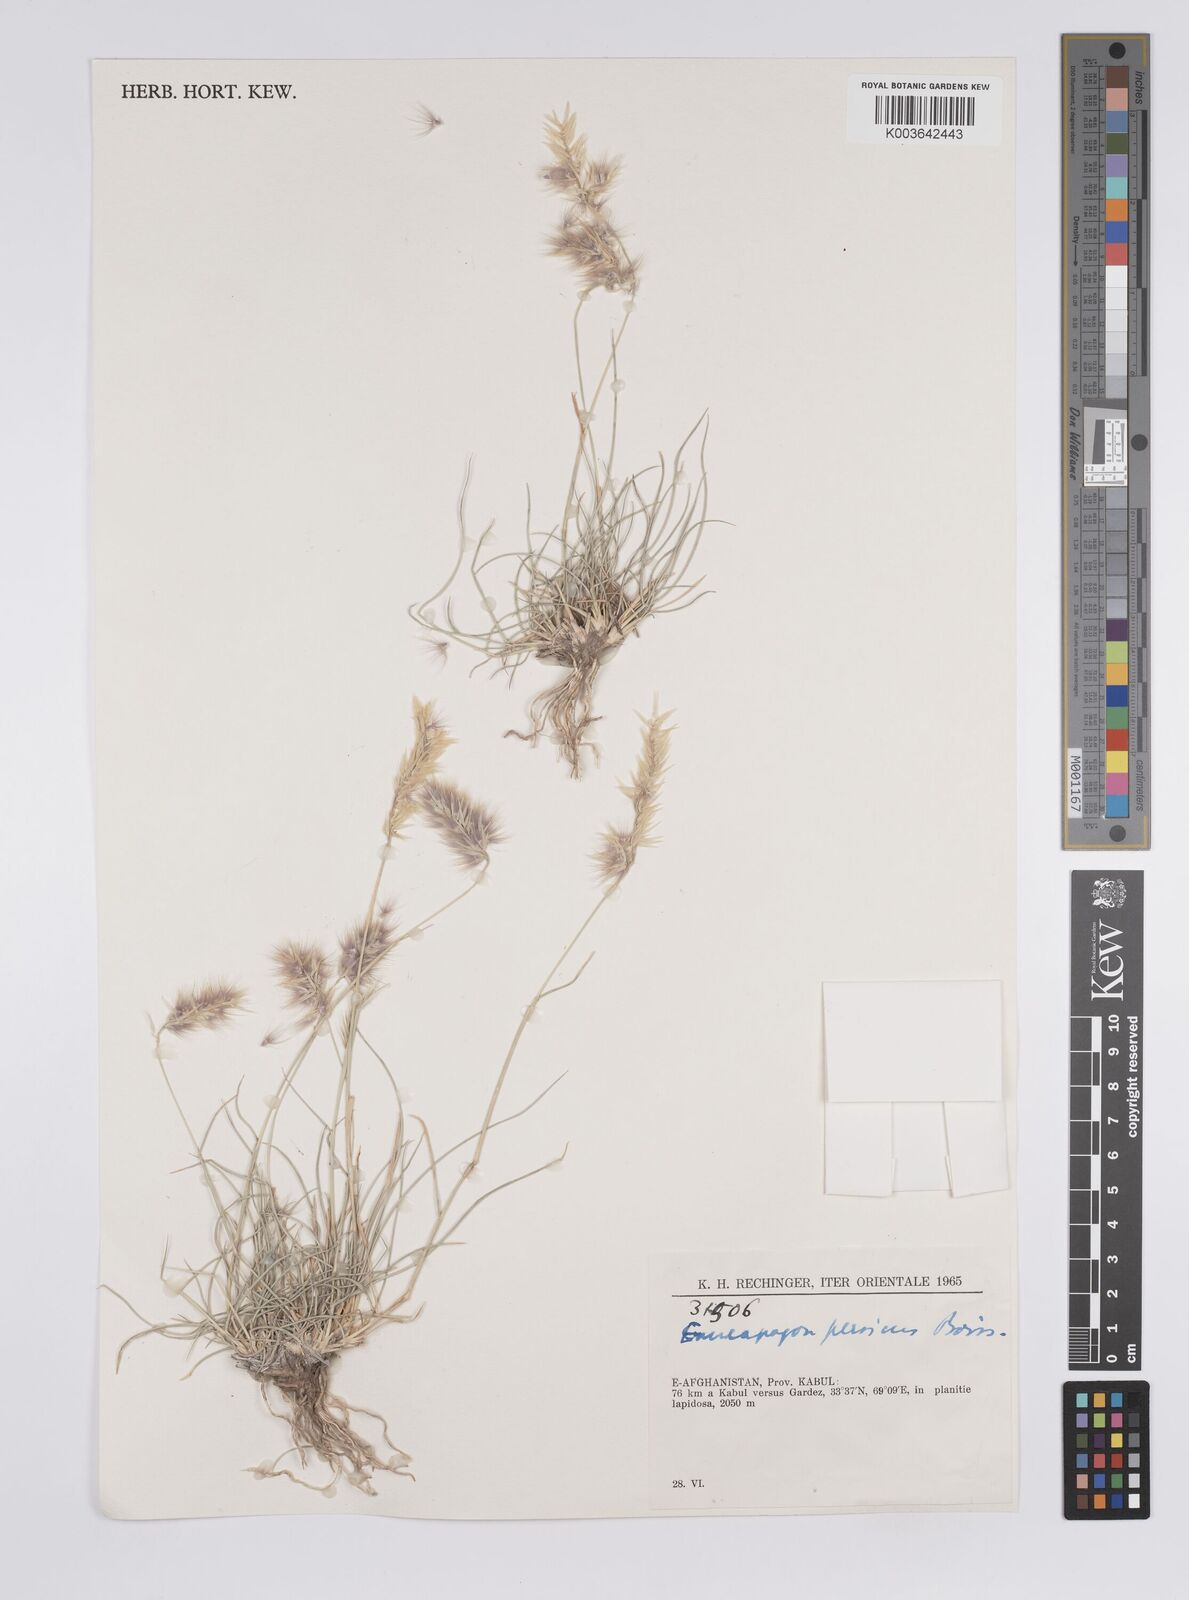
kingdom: Plantae
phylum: Tracheophyta
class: Liliopsida
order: Poales
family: Poaceae
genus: Enneapogon
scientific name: Enneapogon persicus
